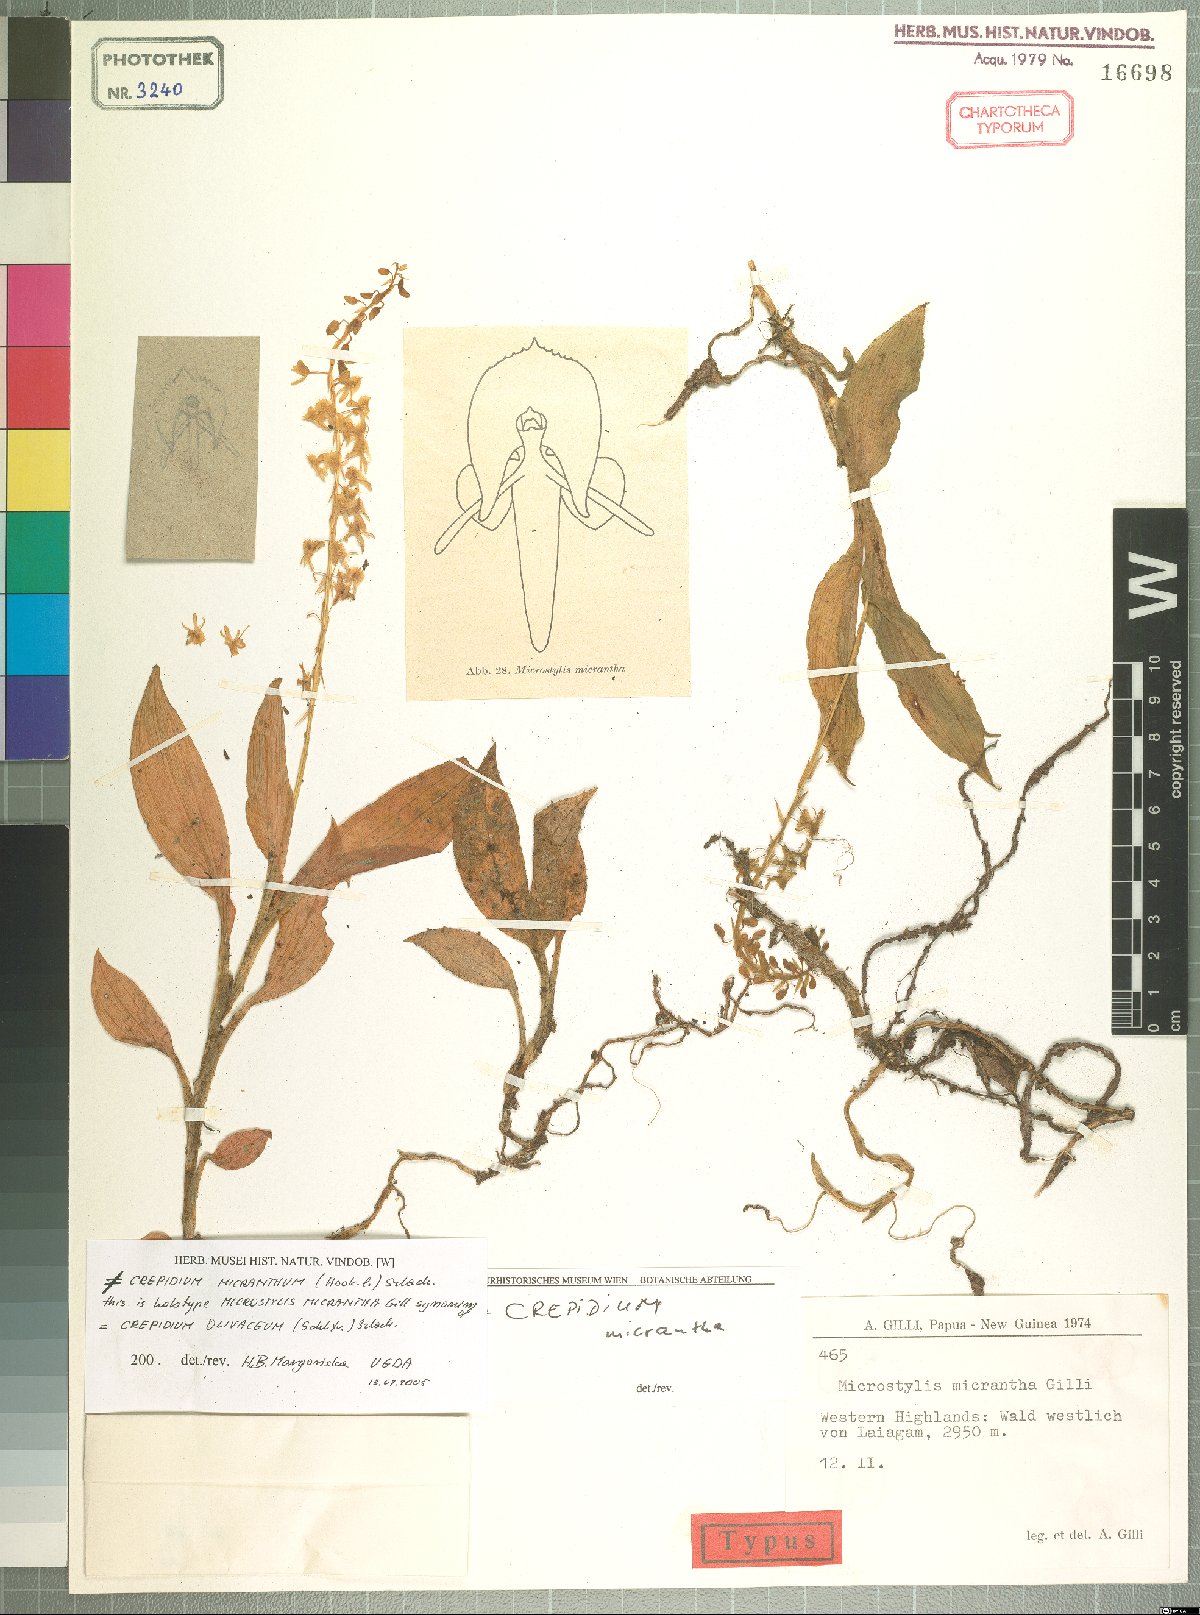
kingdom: Plantae
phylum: Tracheophyta
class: Liliopsida
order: Asparagales
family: Orchidaceae
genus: Crepidium
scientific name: Crepidium olivaceum
